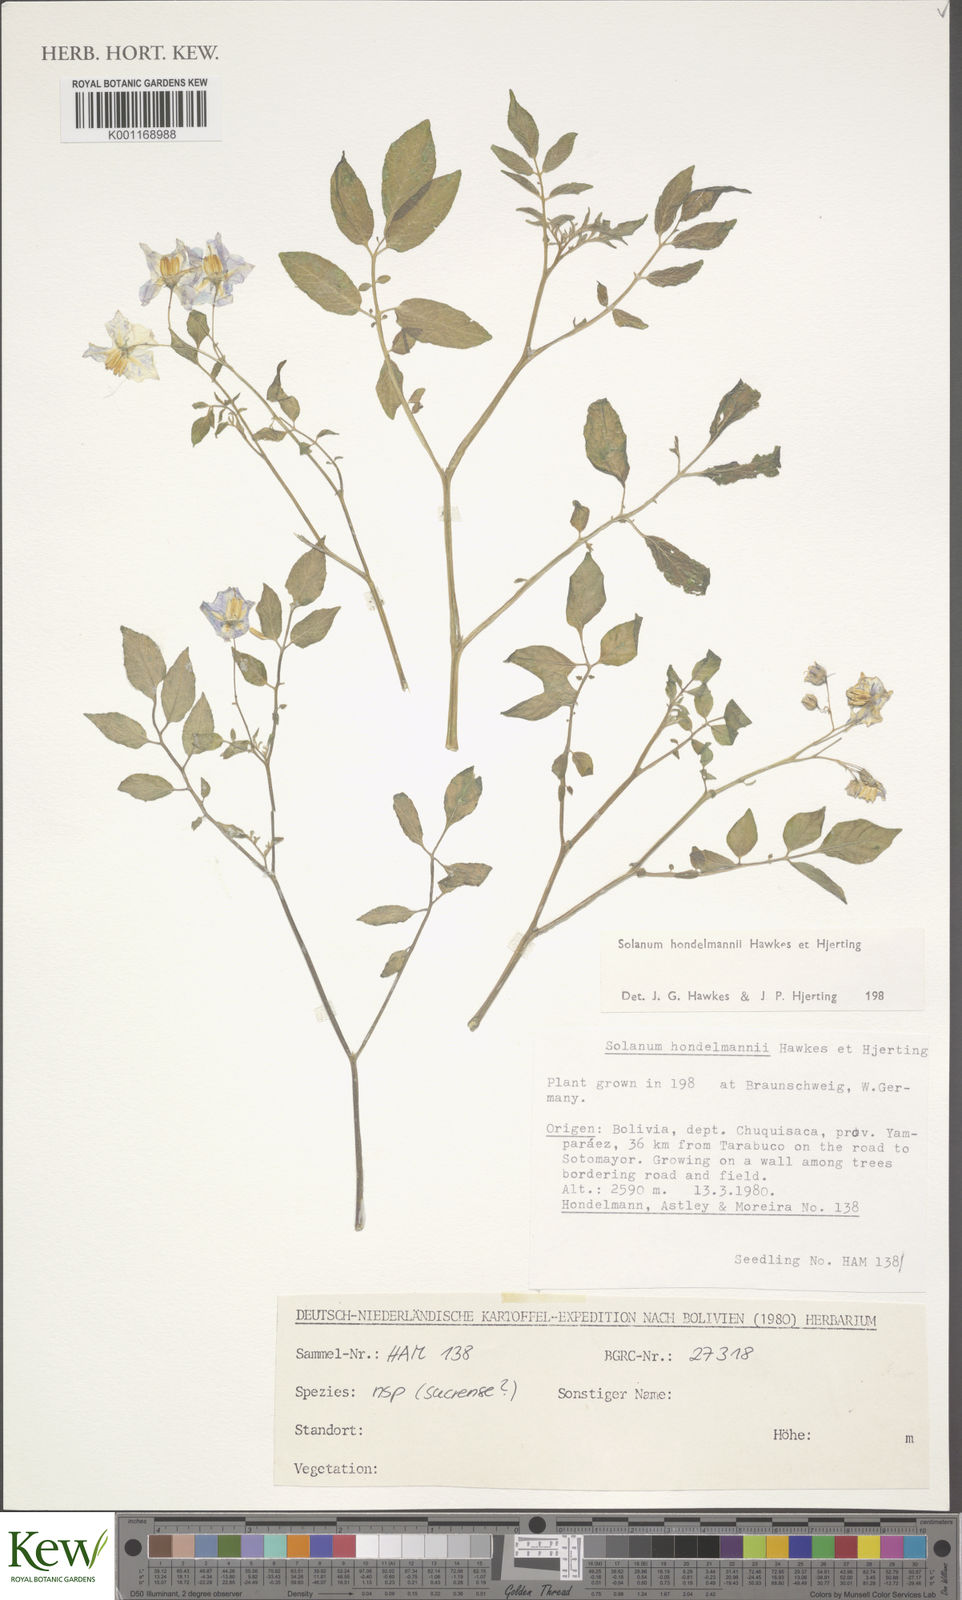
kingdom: Plantae
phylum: Tracheophyta
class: Magnoliopsida
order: Solanales
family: Solanaceae
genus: Solanum
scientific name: Solanum brevicaule
